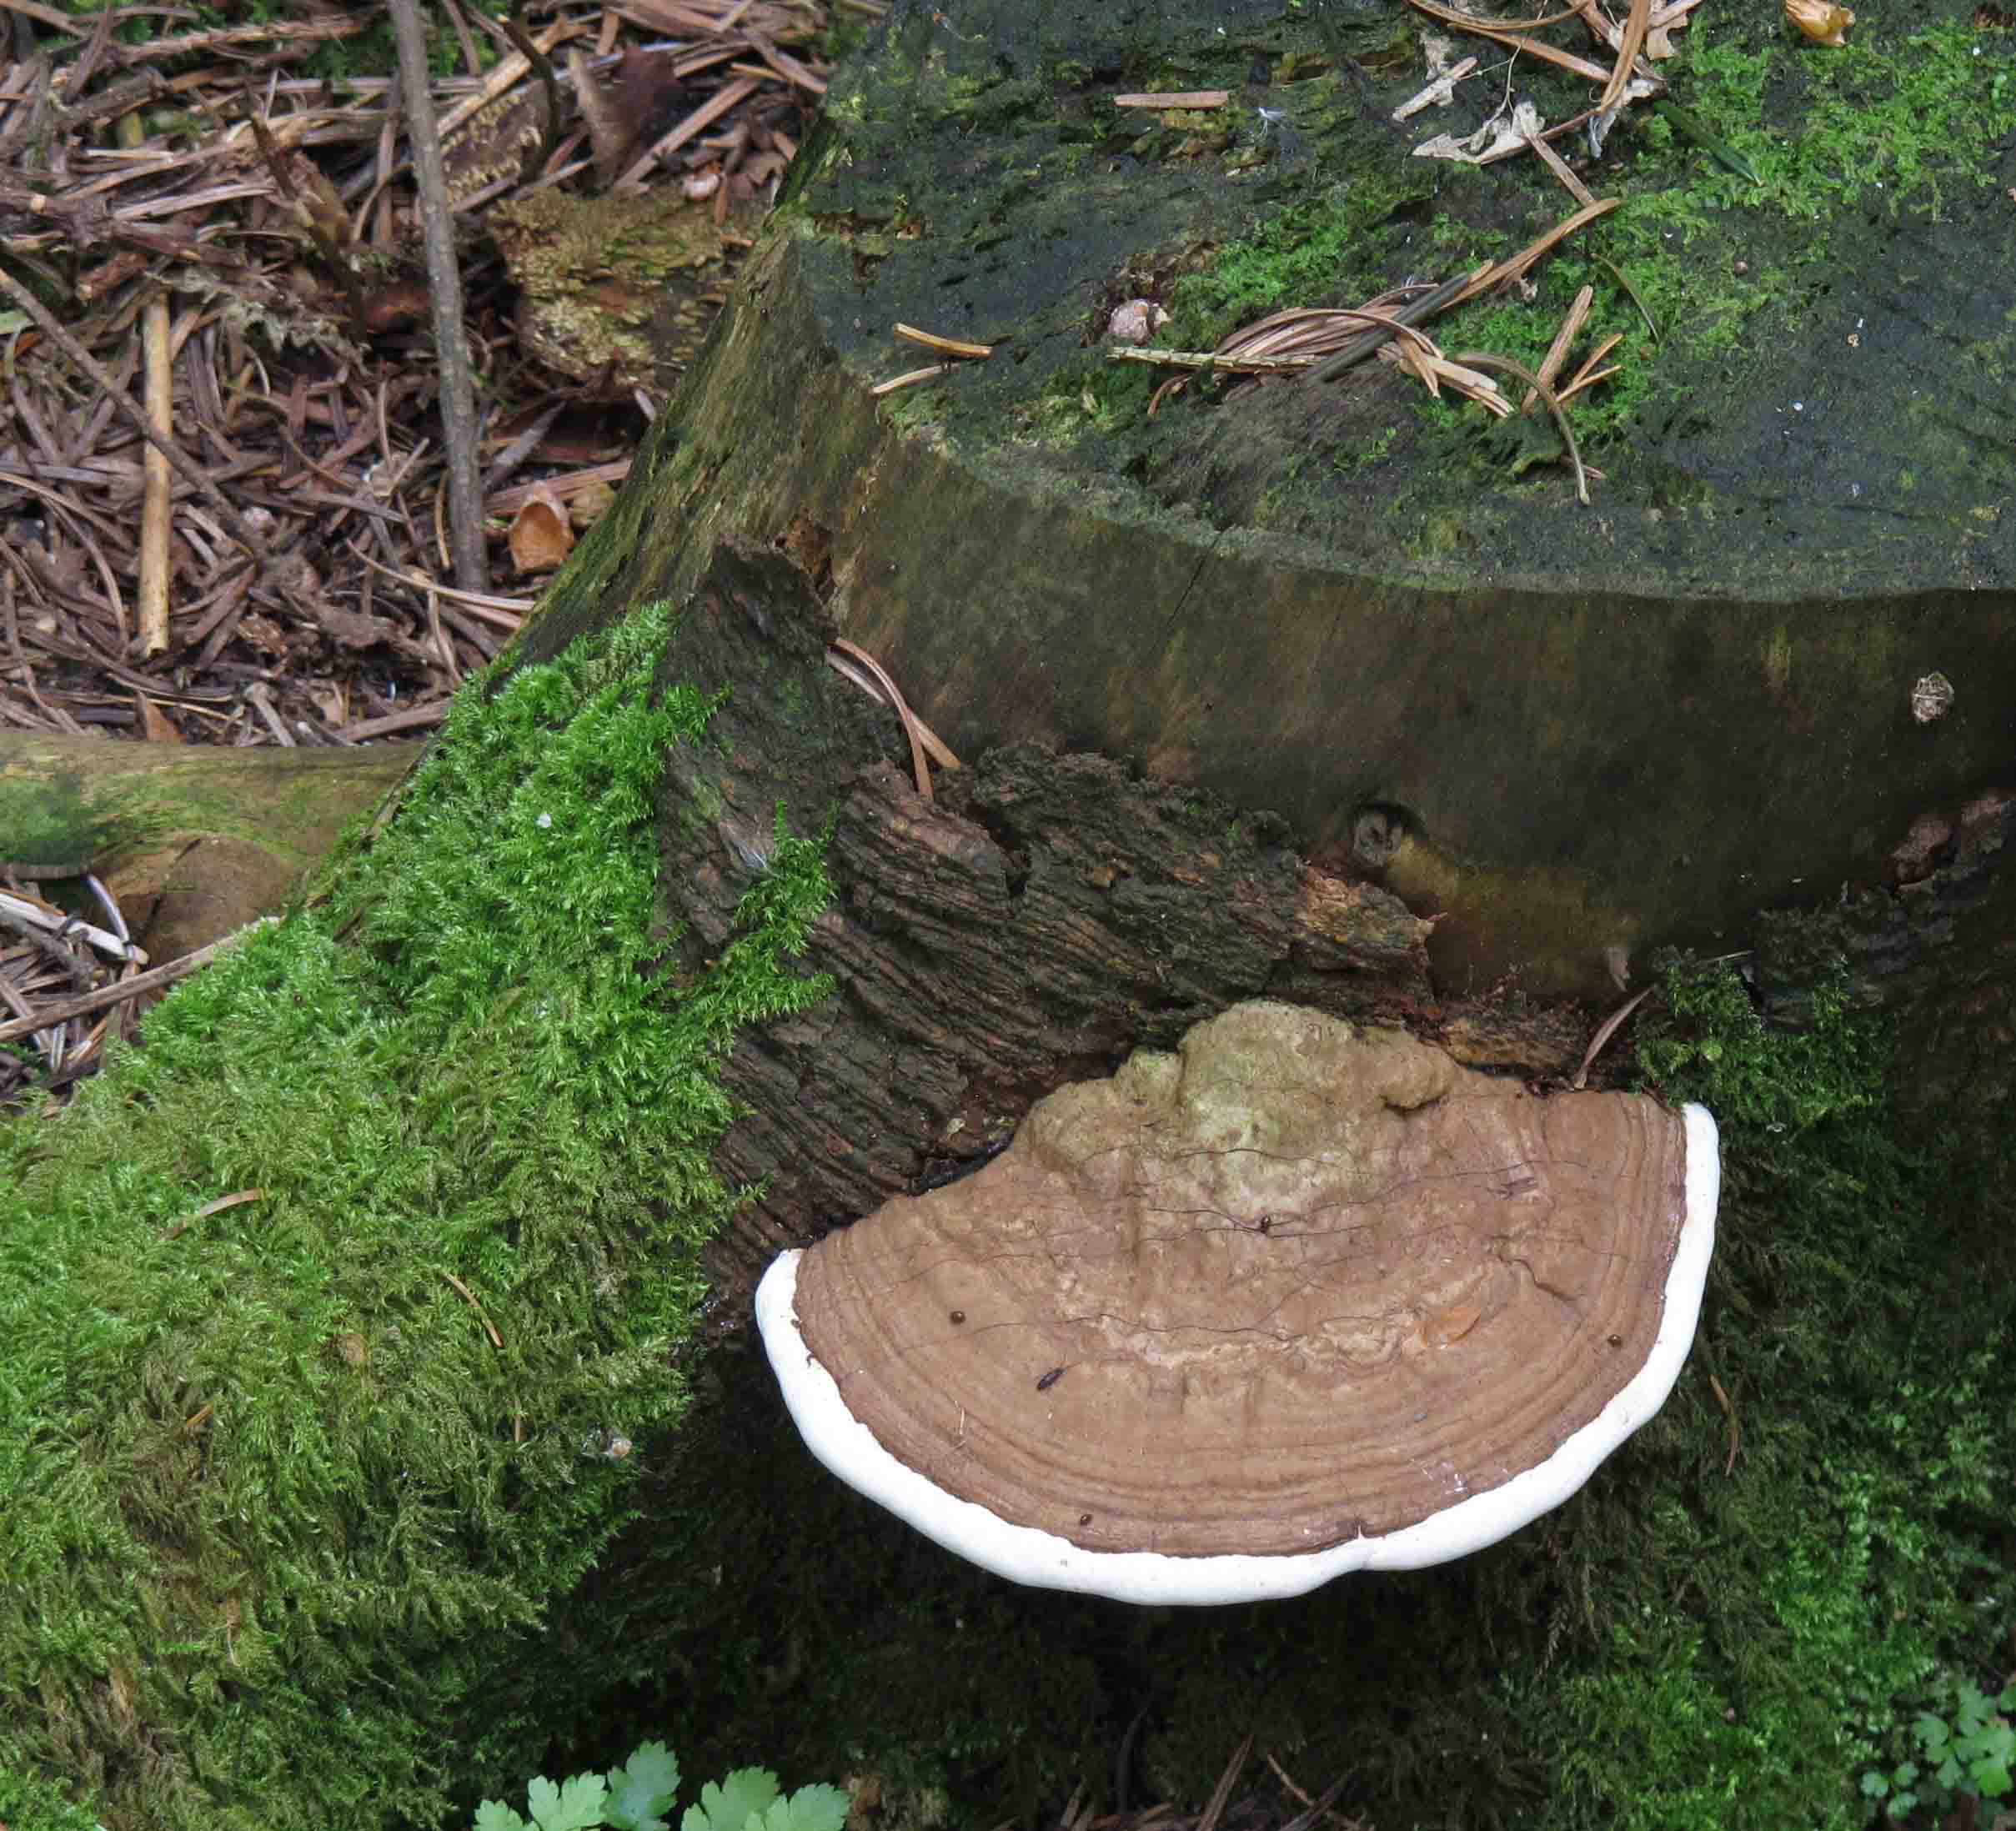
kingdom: Fungi
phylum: Basidiomycota
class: Agaricomycetes
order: Polyporales
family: Polyporaceae
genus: Ganoderma
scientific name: Ganoderma applanatum
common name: flad lakporesvamp
